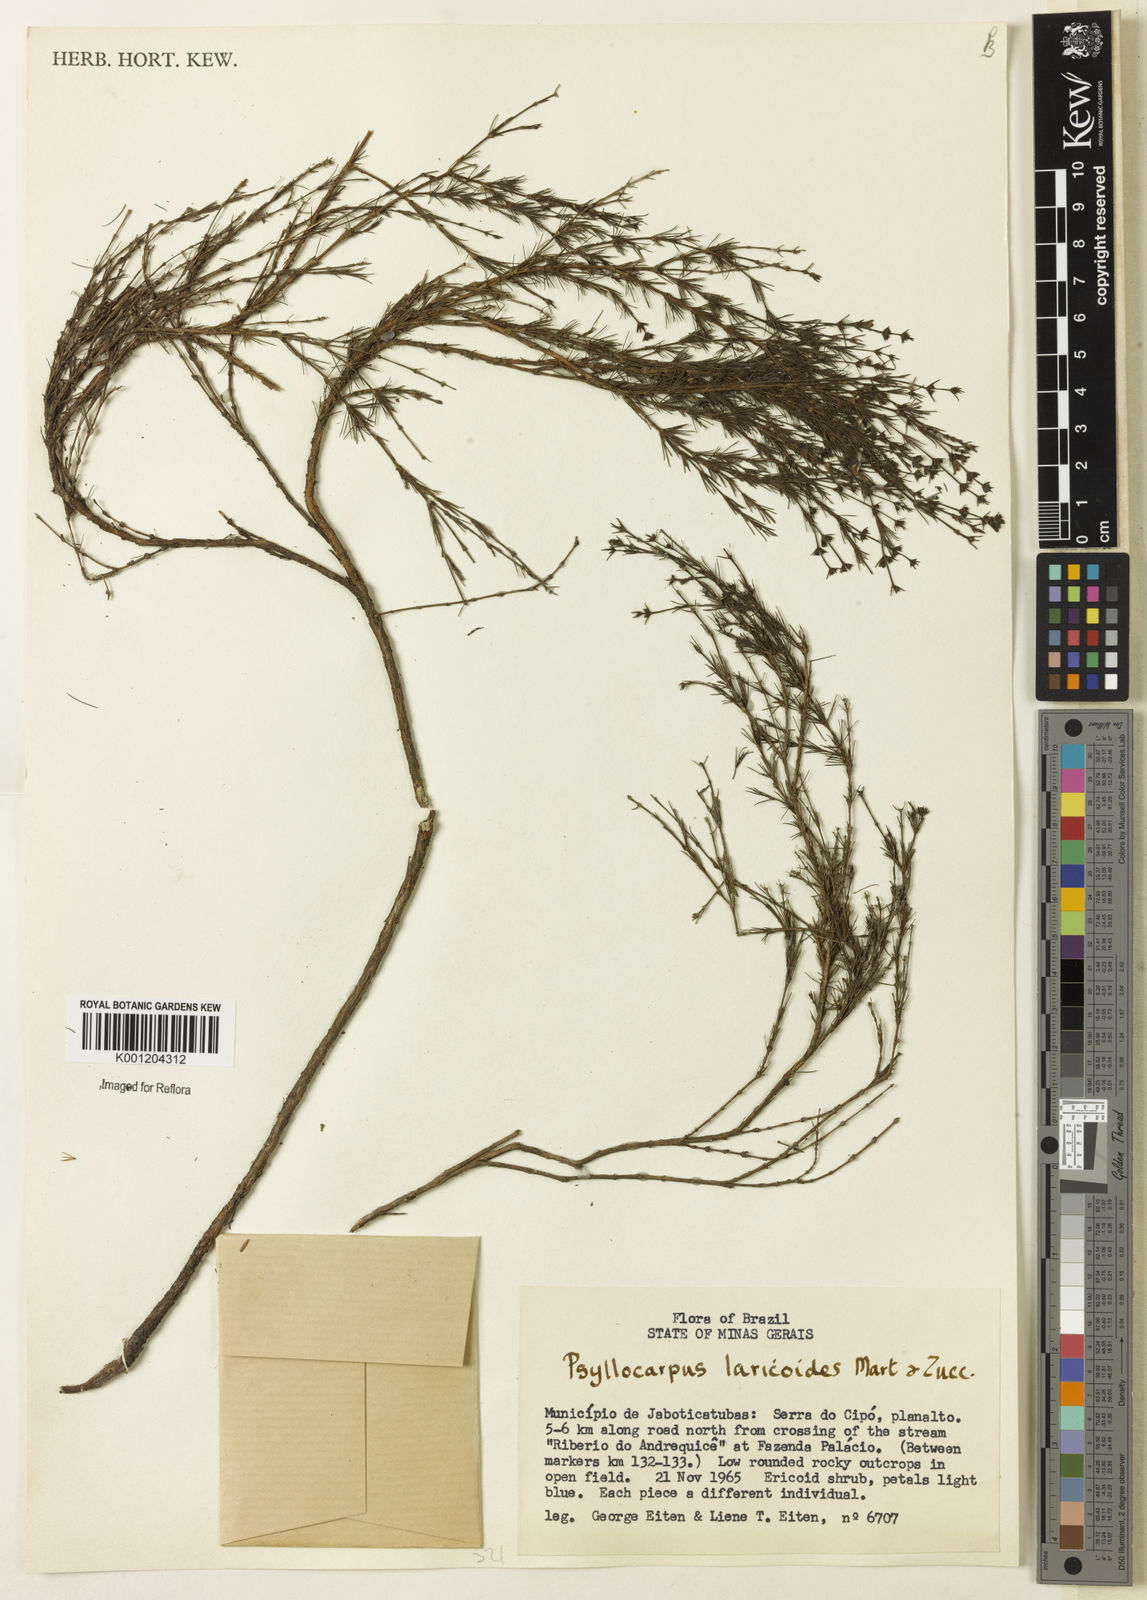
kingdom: Plantae
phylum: Tracheophyta
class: Magnoliopsida
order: Gentianales
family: Rubiaceae
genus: Psyllocarpus
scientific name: Psyllocarpus laricoides
